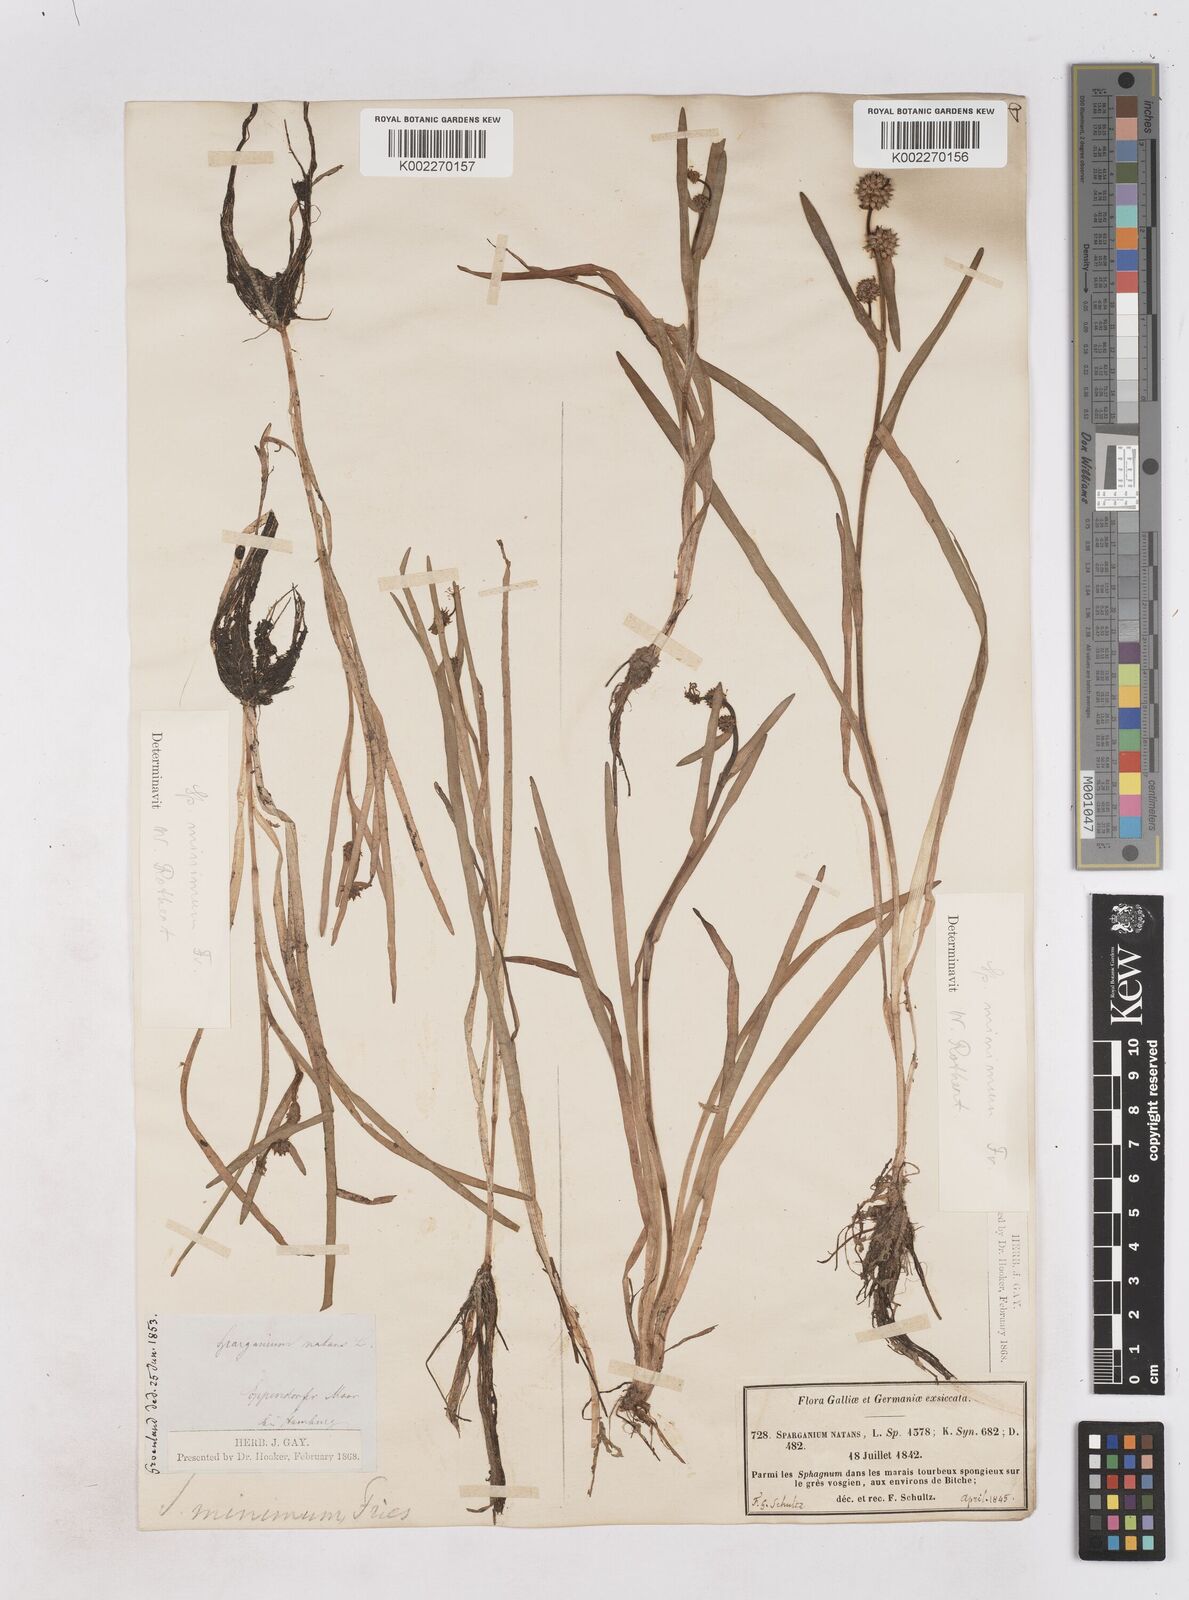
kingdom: Plantae
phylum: Tracheophyta
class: Liliopsida
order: Poales
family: Typhaceae
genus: Sparganium
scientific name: Sparganium natans
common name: Least bur-reed
